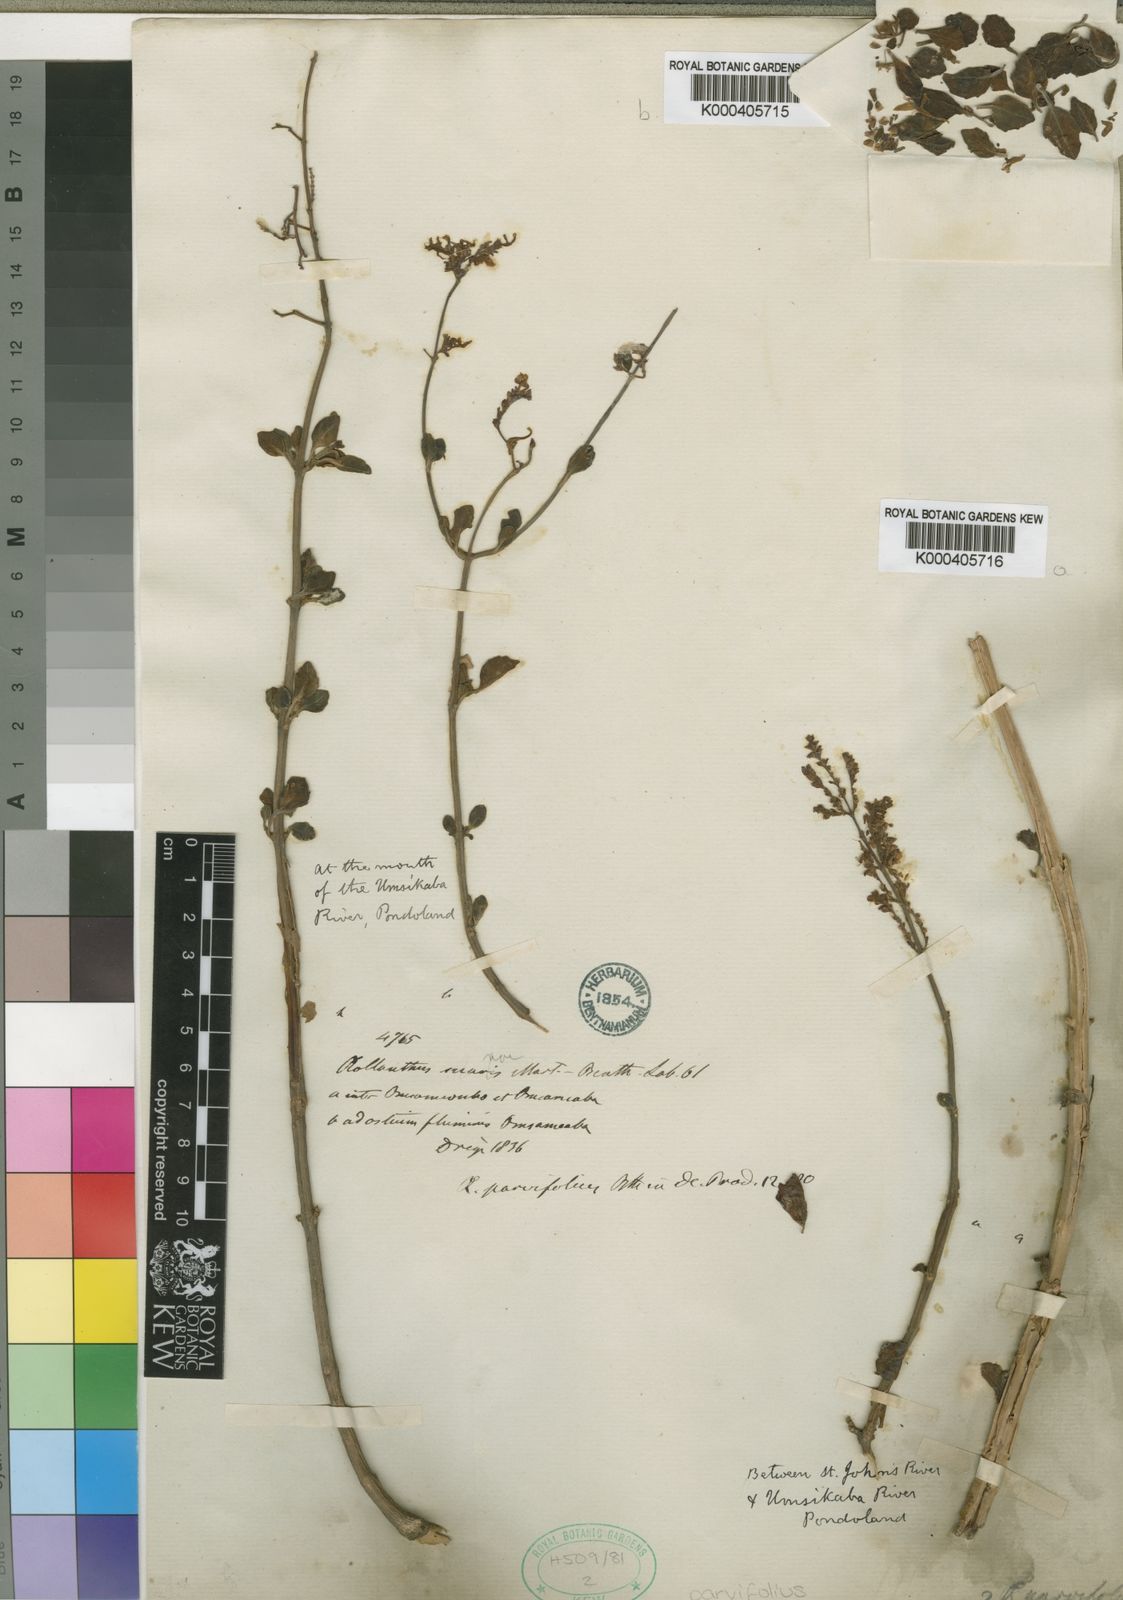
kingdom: Plantae
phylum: Tracheophyta
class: Magnoliopsida
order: Lamiales
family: Lamiaceae
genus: Aeollanthus
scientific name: Aeollanthus parvifolius
